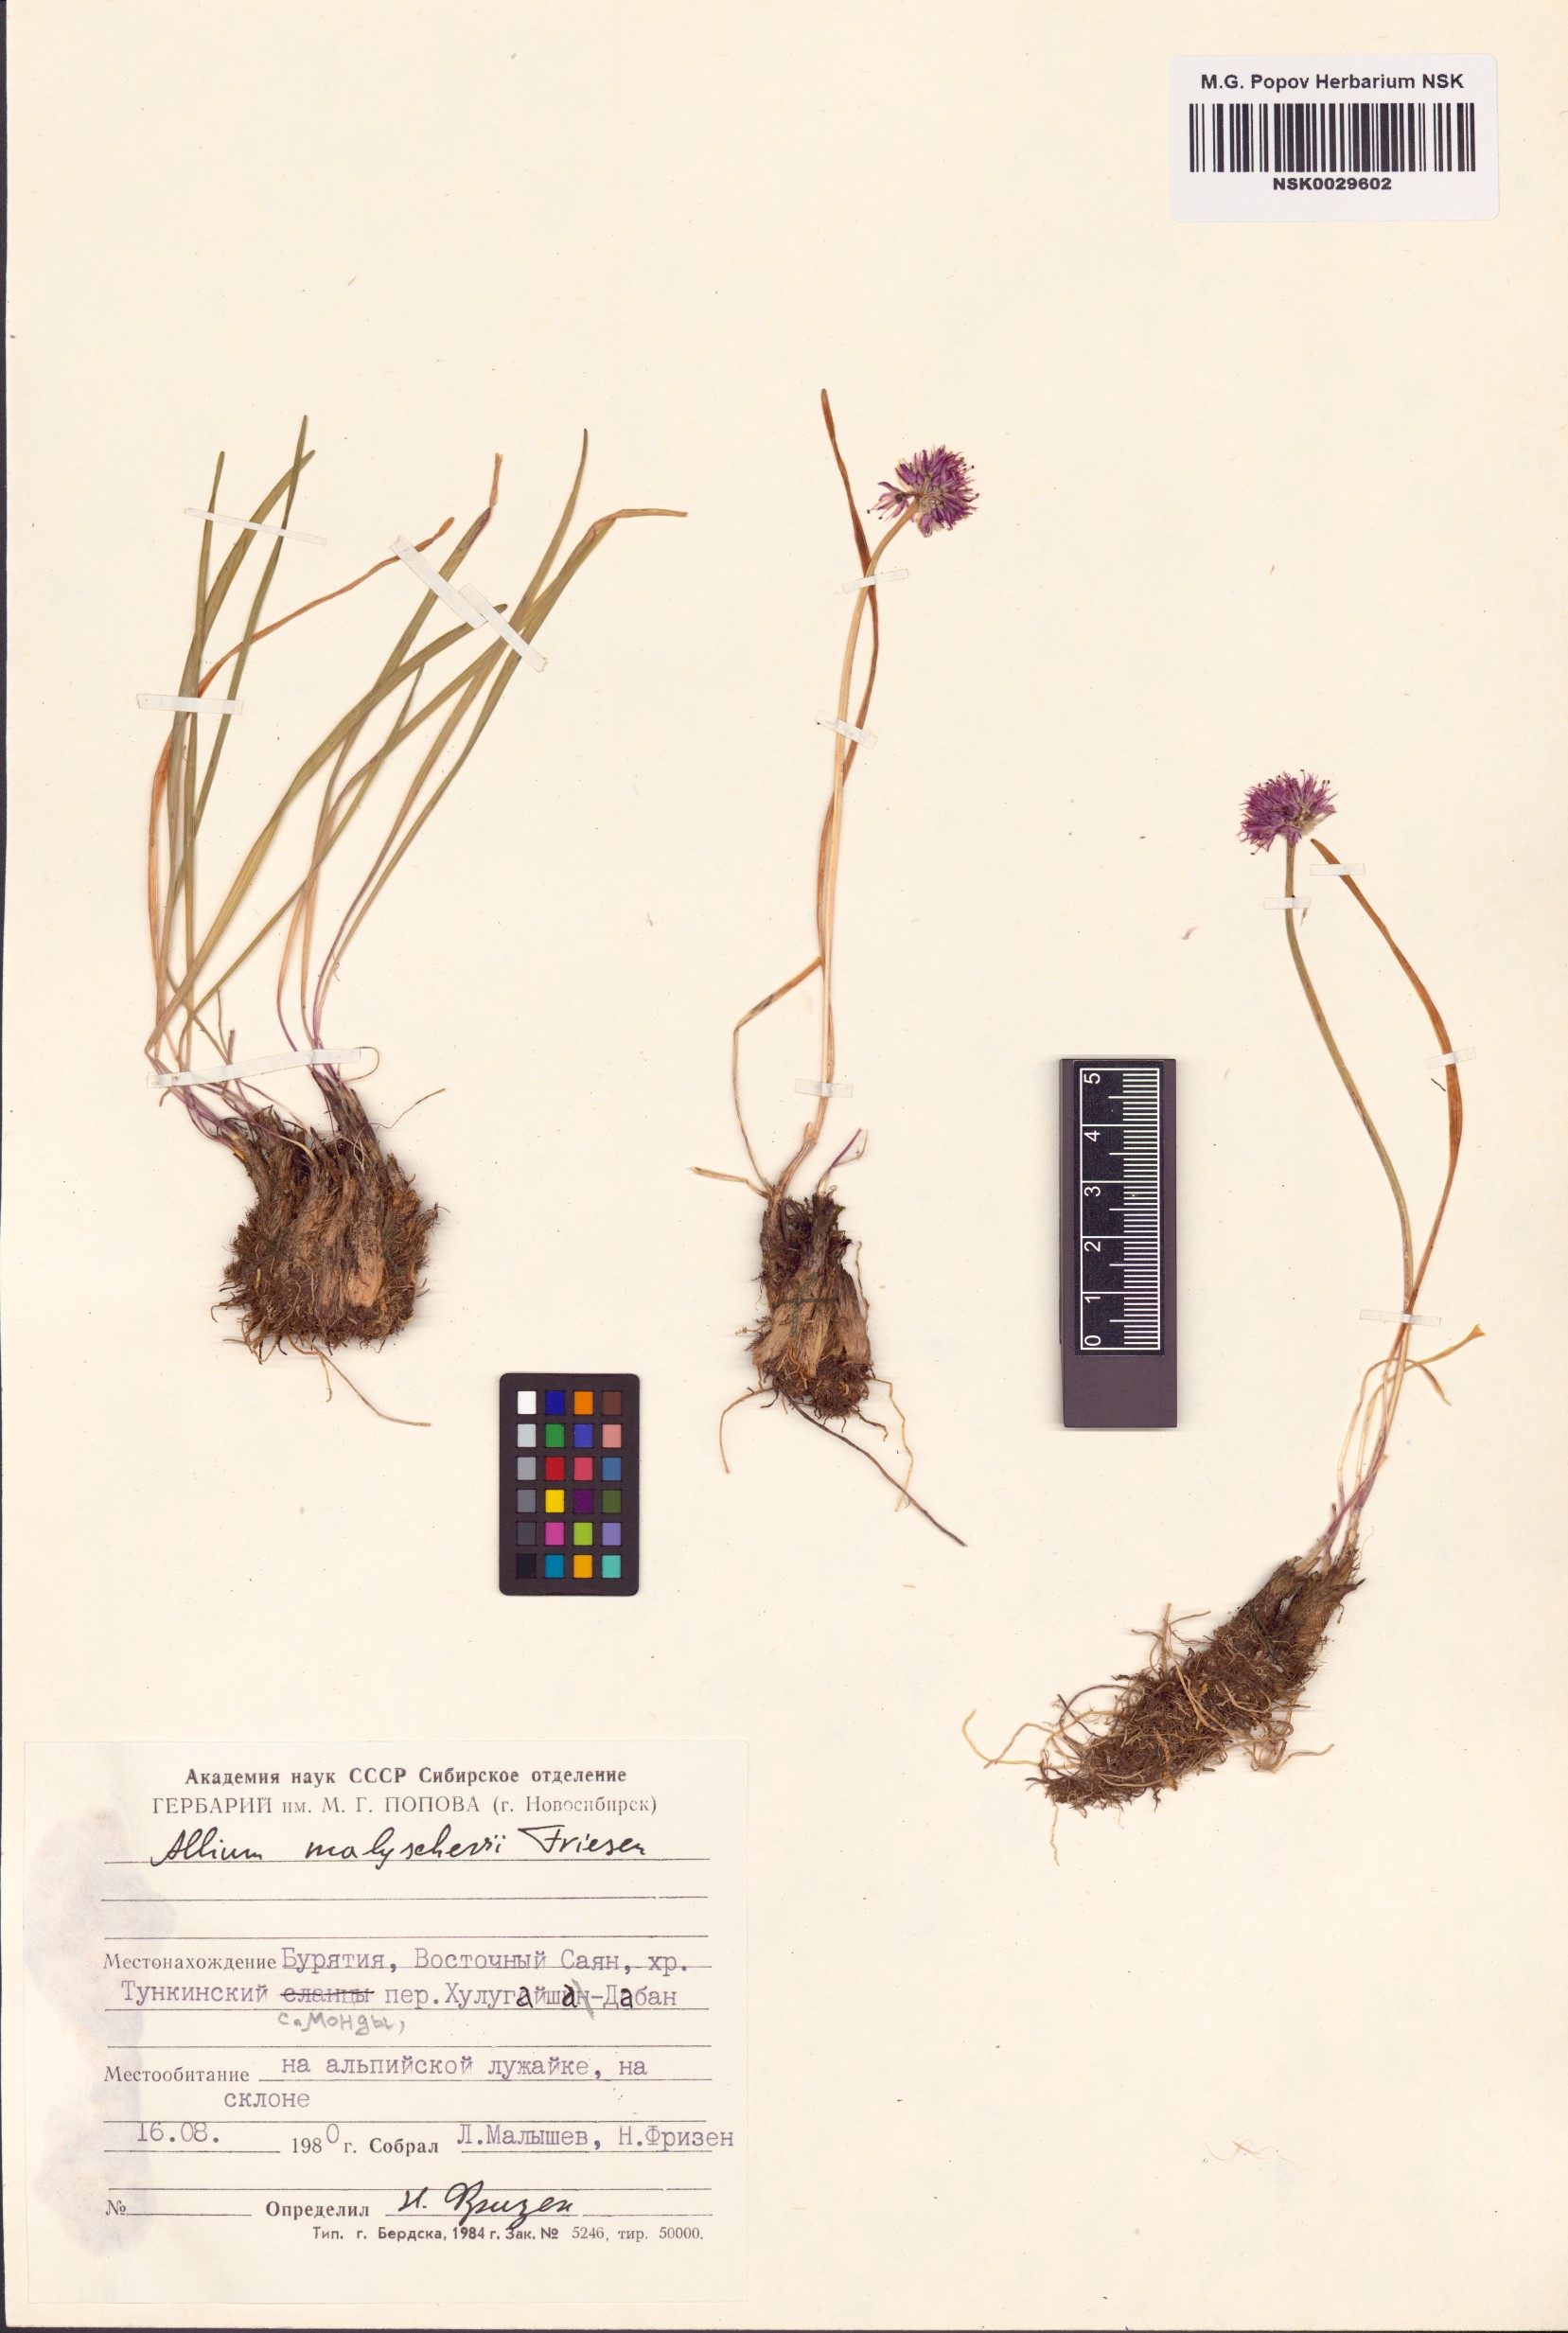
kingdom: Plantae
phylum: Tracheophyta
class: Liliopsida
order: Asparagales
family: Amaryllidaceae
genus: Allium
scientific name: Allium malyschevii
